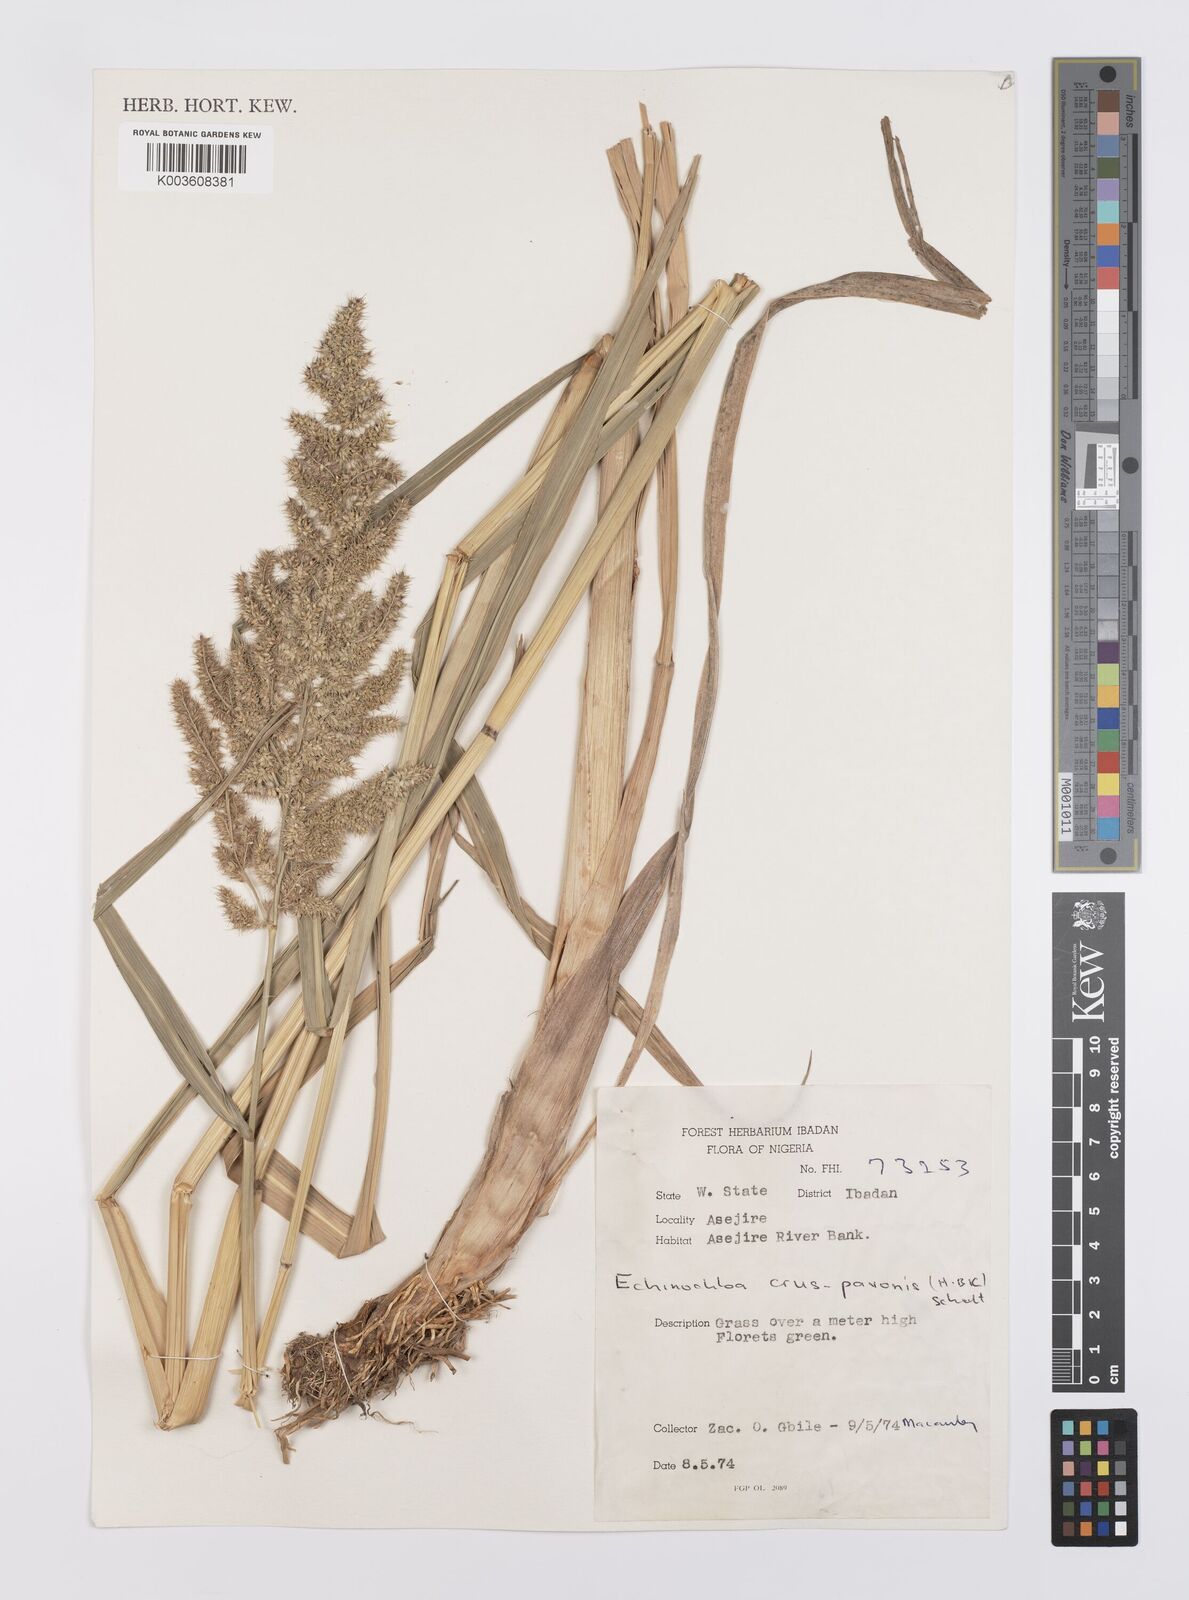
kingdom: Plantae
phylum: Tracheophyta
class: Liliopsida
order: Poales
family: Poaceae
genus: Echinochloa
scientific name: Echinochloa crus-pavonis
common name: Gulf cockspur grass
